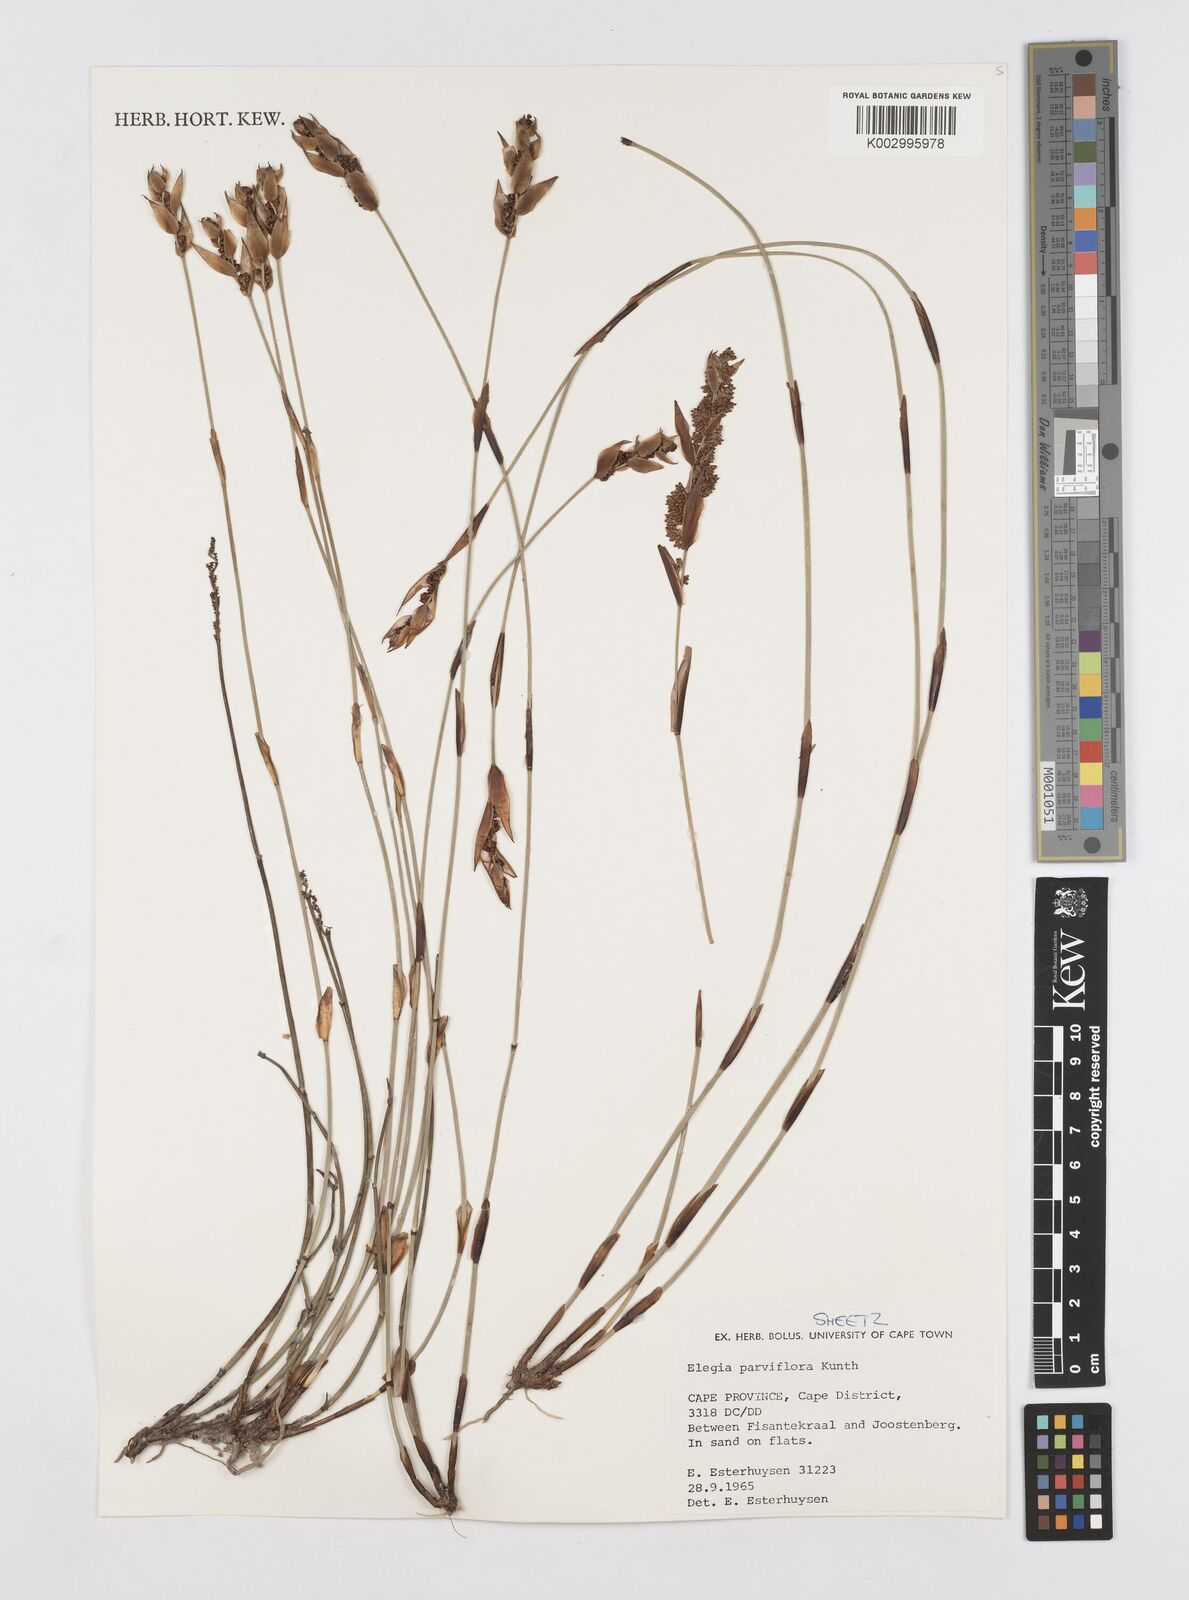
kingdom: Plantae
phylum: Tracheophyta
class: Liliopsida
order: Poales
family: Restionaceae
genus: Cannomois
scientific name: Cannomois parviflora
